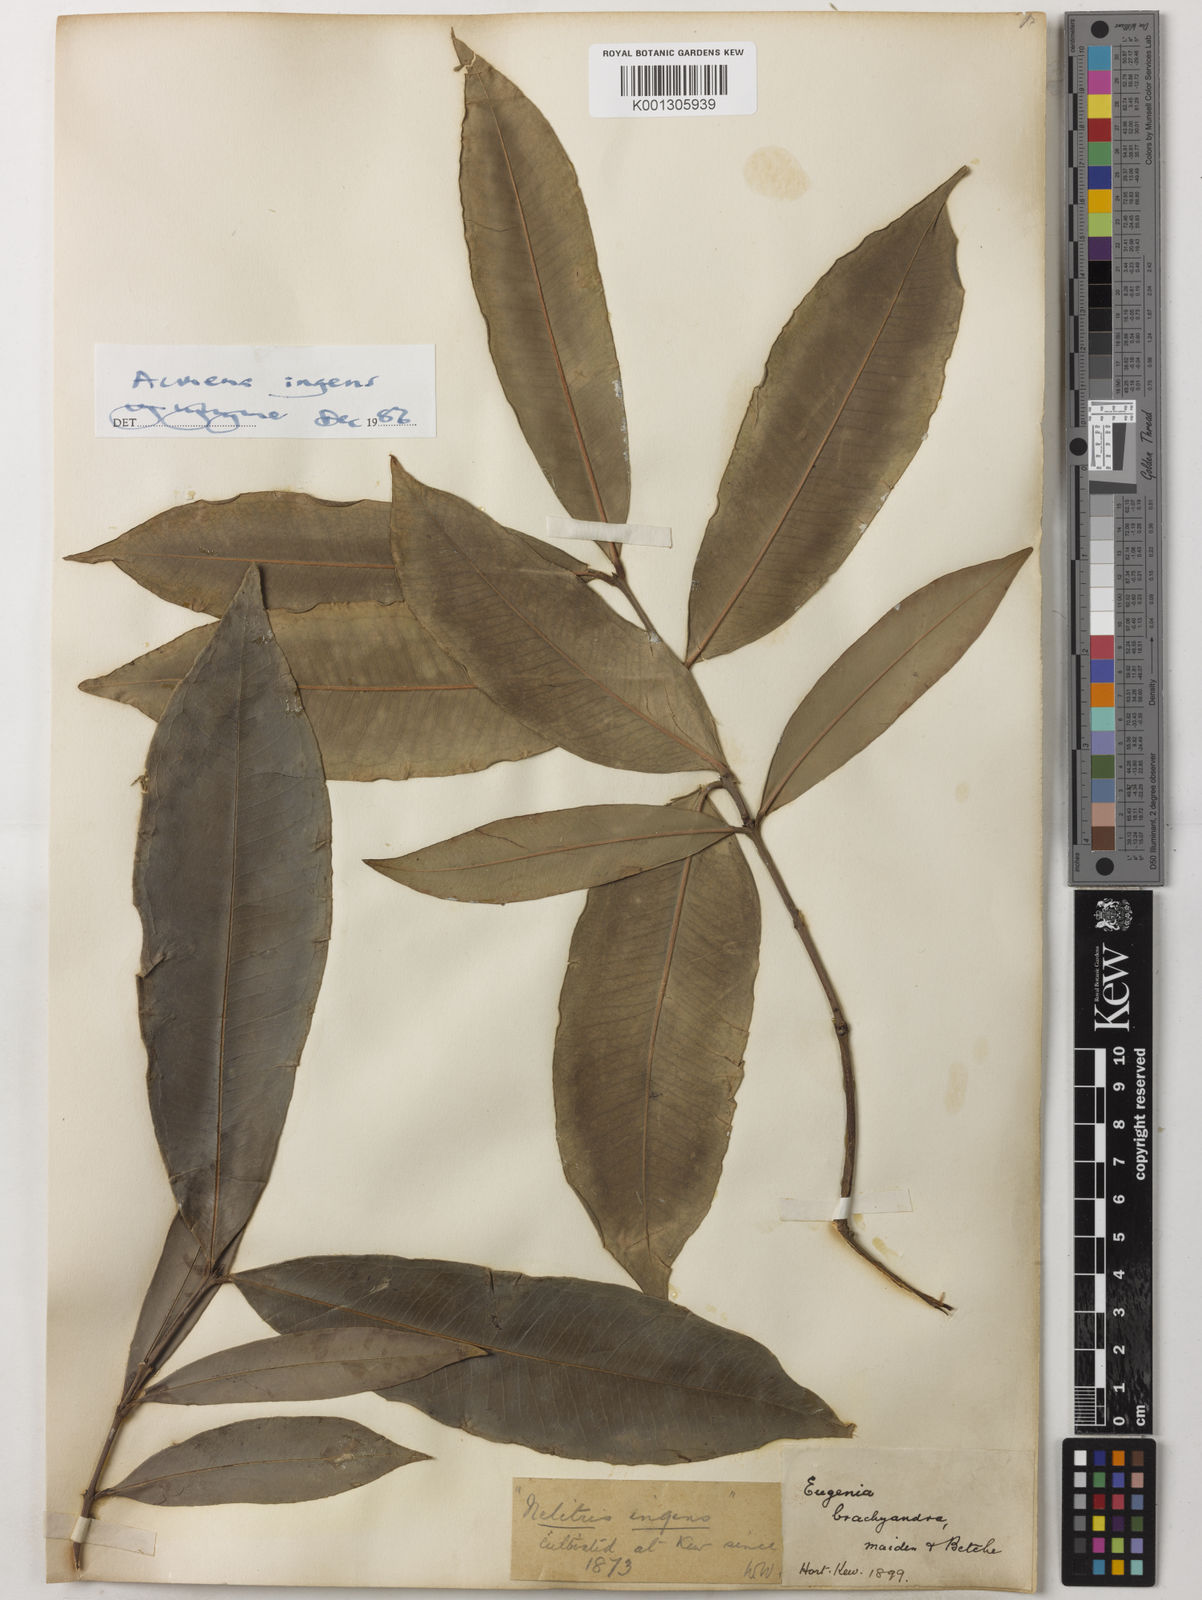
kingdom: Plantae
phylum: Tracheophyta
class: Magnoliopsida
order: Myrtales
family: Myrtaceae
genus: Syzygium
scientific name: Syzygium ingens
